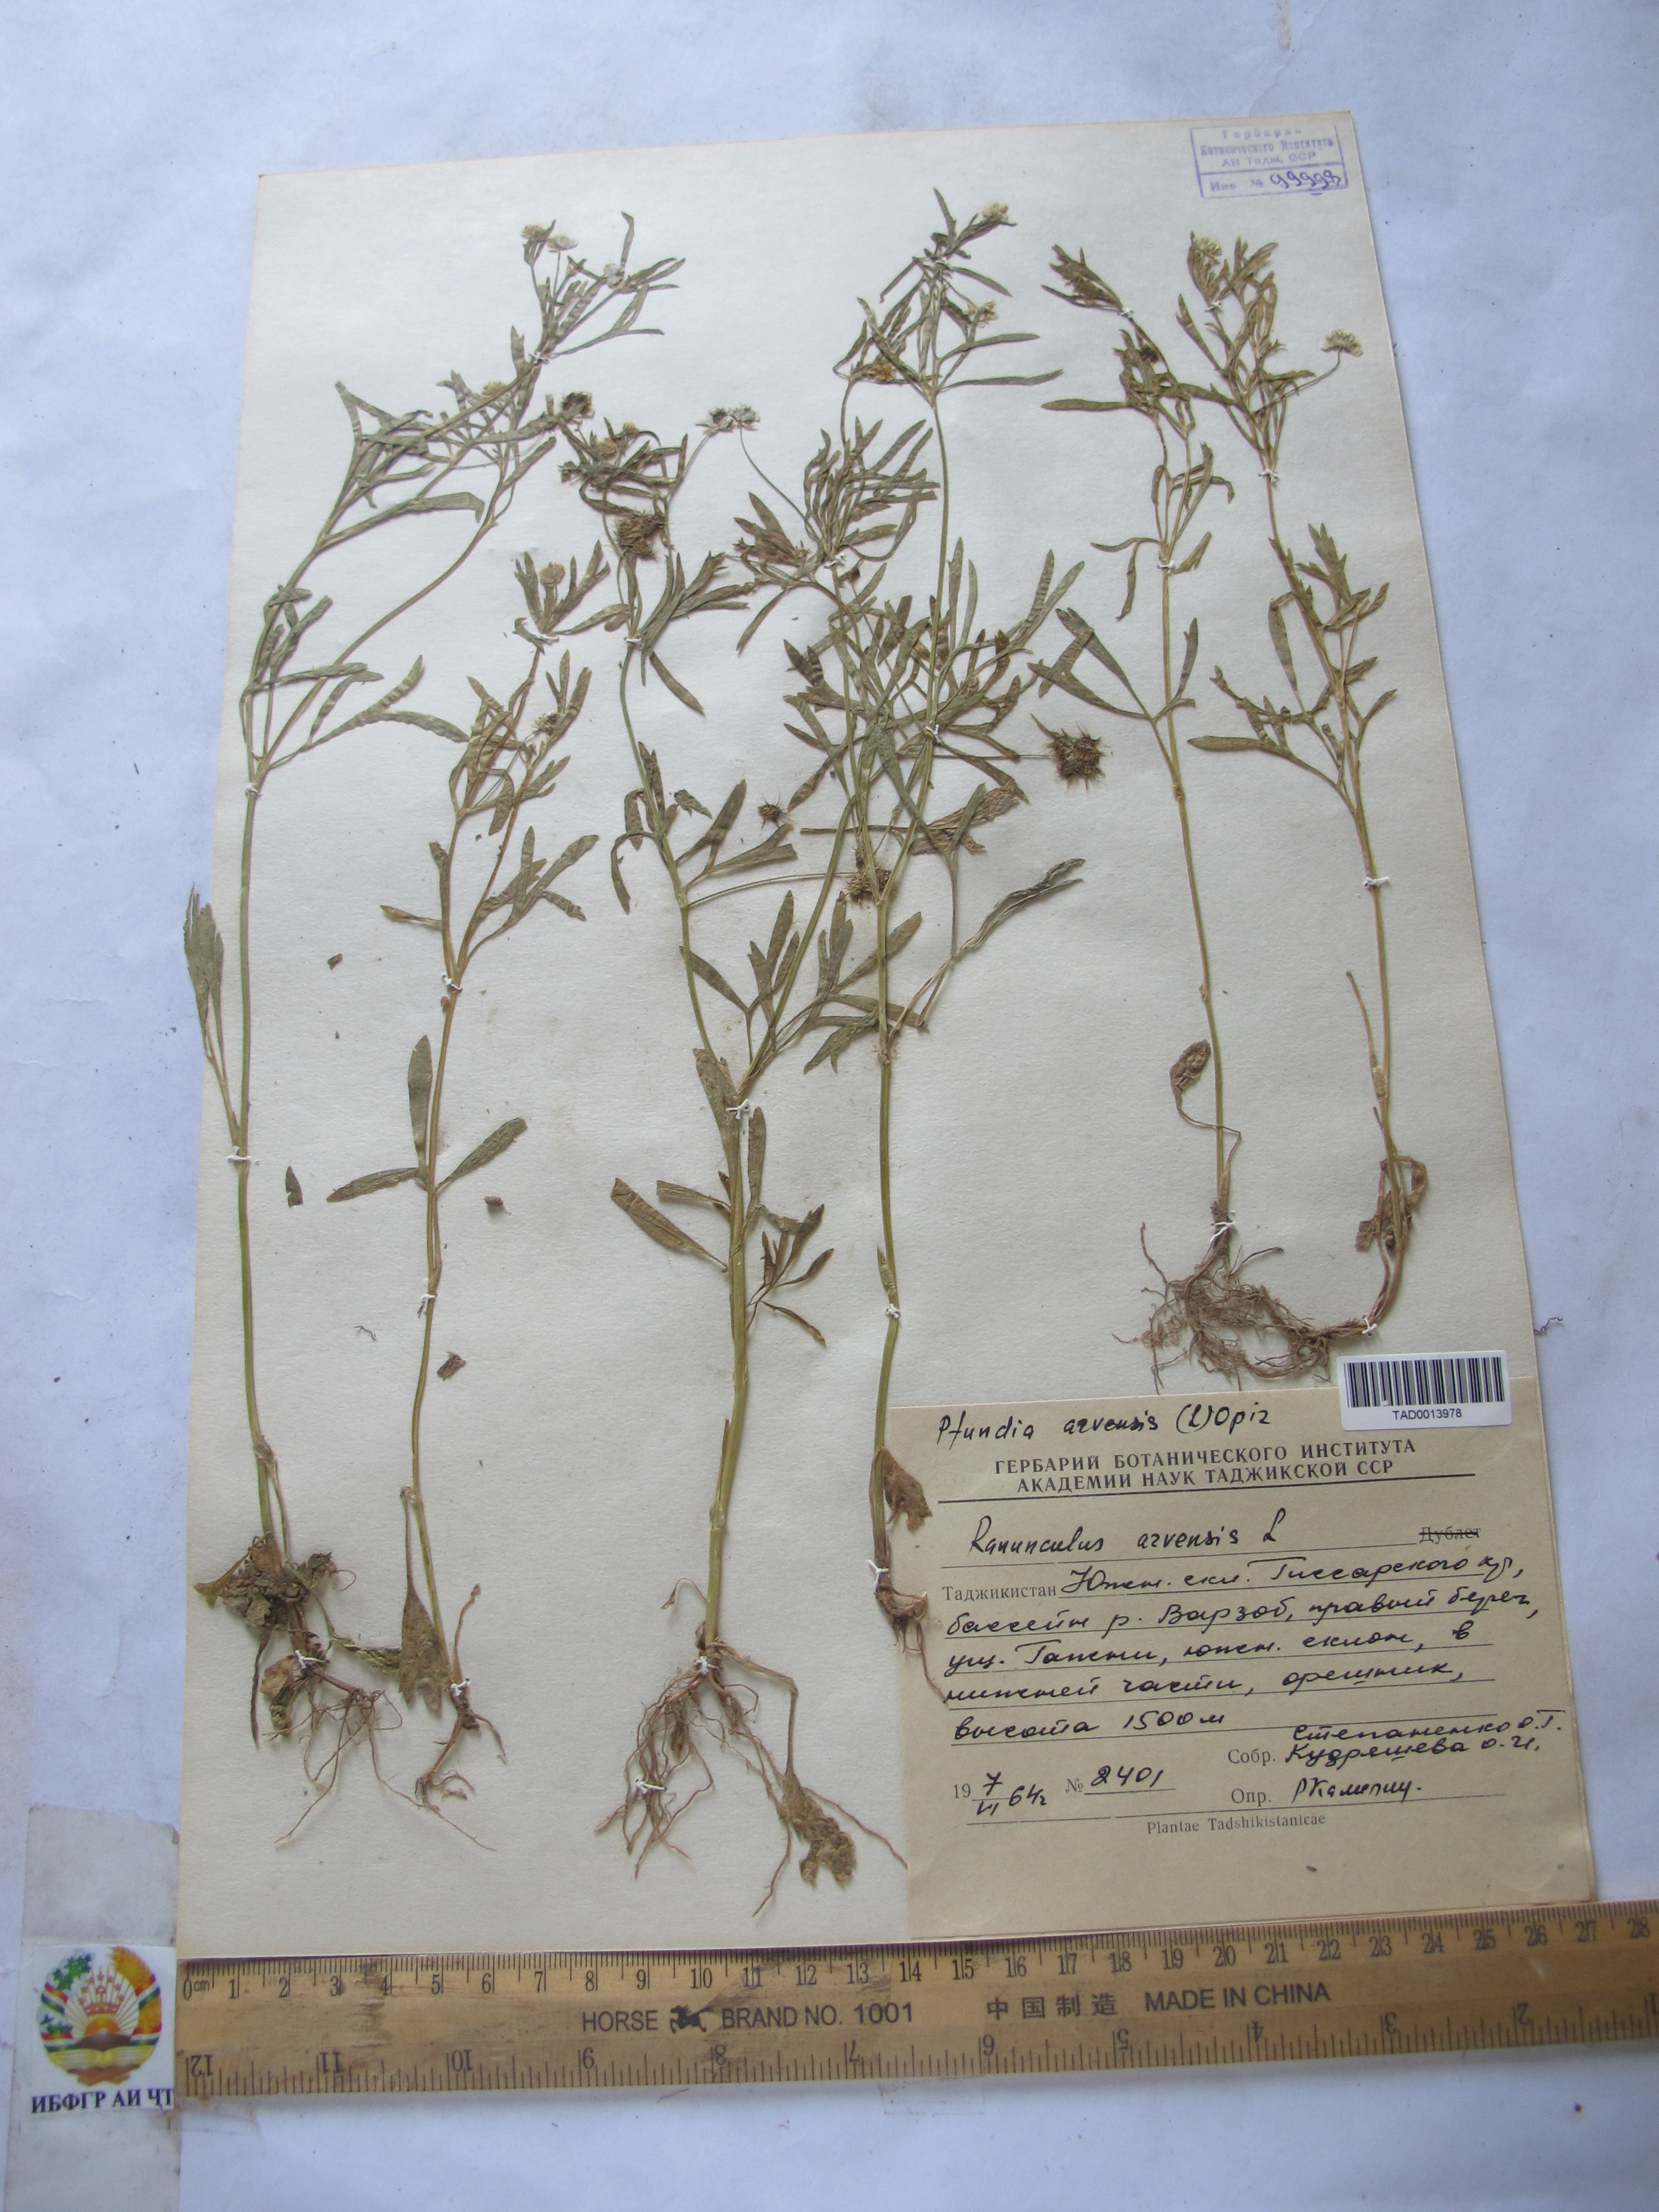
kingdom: Plantae
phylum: Tracheophyta
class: Magnoliopsida
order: Ranunculales
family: Ranunculaceae
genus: Ranunculus
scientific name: Ranunculus arvensis
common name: Corn buttercup
